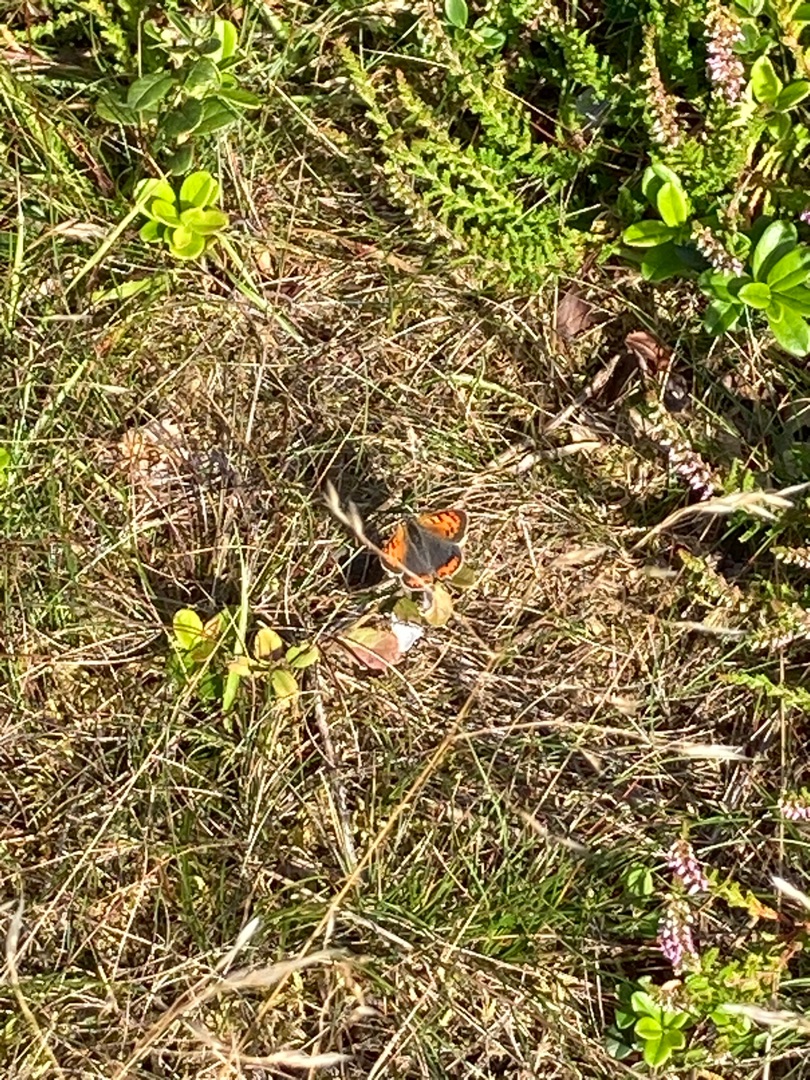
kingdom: Animalia
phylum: Arthropoda
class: Insecta
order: Lepidoptera
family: Lycaenidae
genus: Lycaena
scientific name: Lycaena phlaeas
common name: Lille ildfugl
